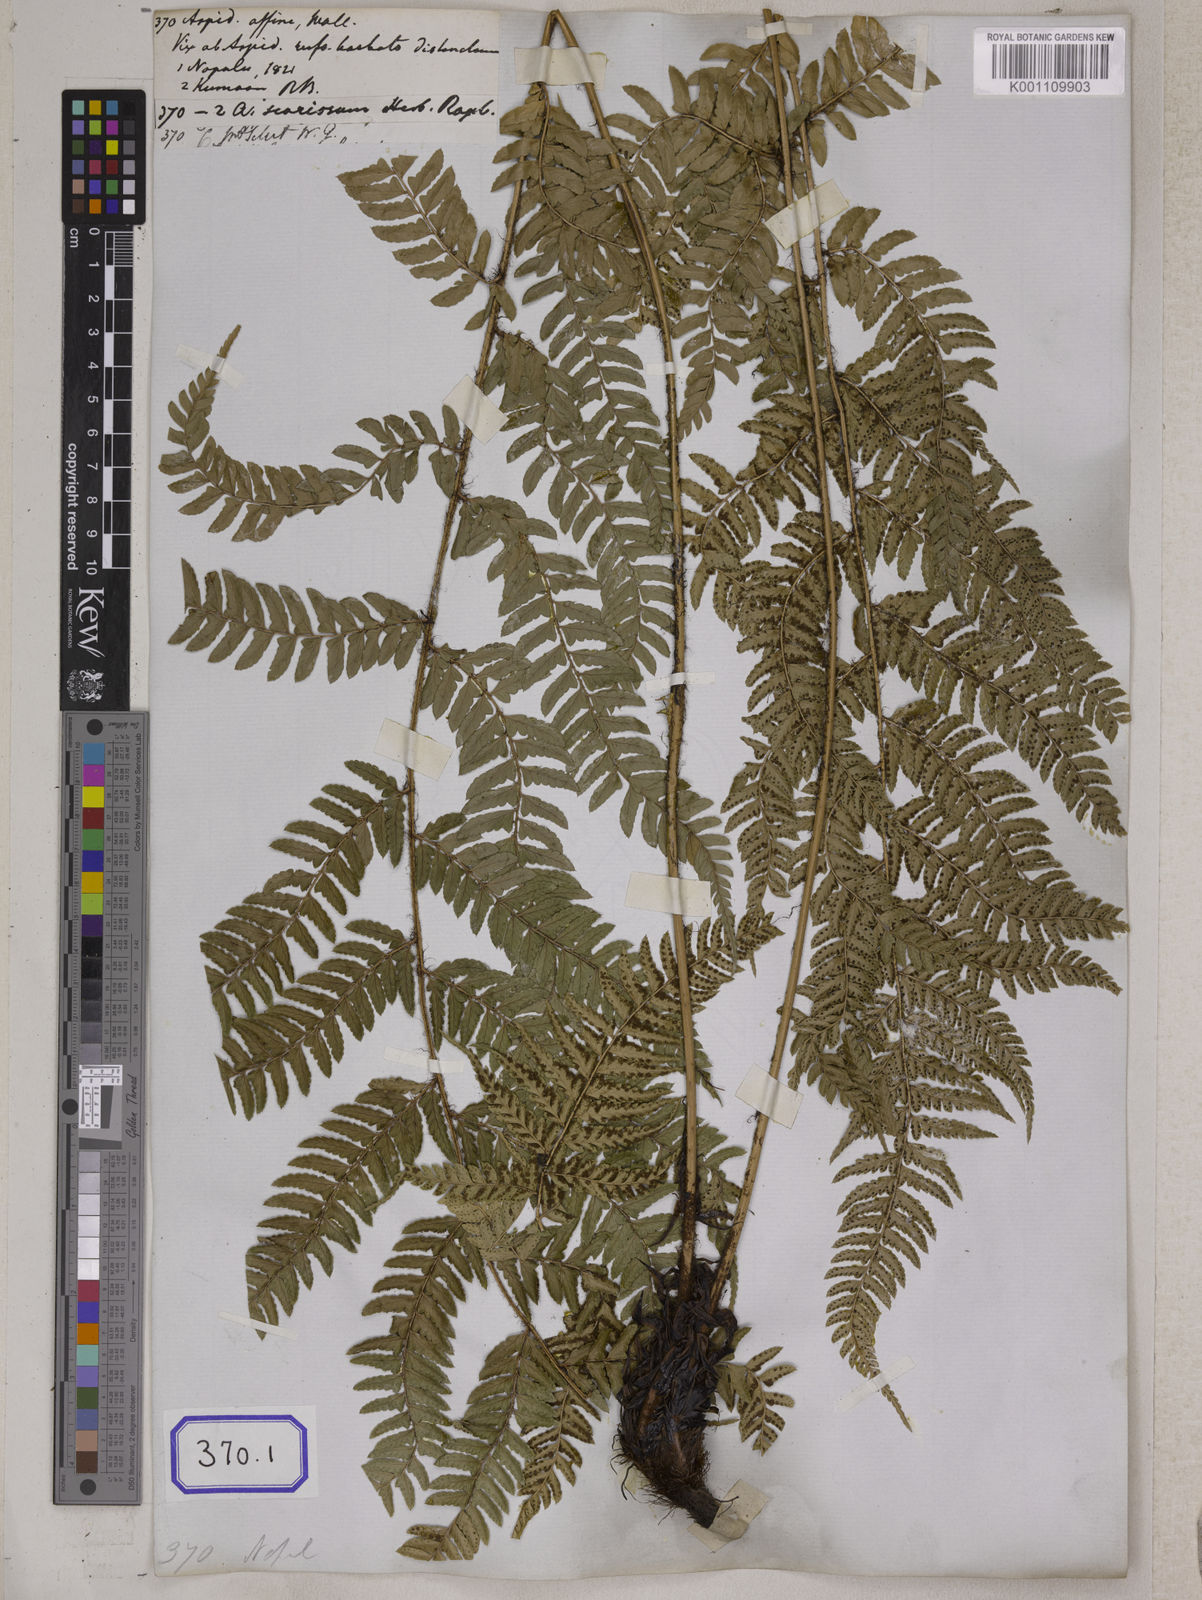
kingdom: Plantae
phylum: Tracheophyta
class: Polypodiopsida
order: Polypodiales
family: Dryopteridaceae
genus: Polystichum
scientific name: Polystichum pseudotsus-simense
